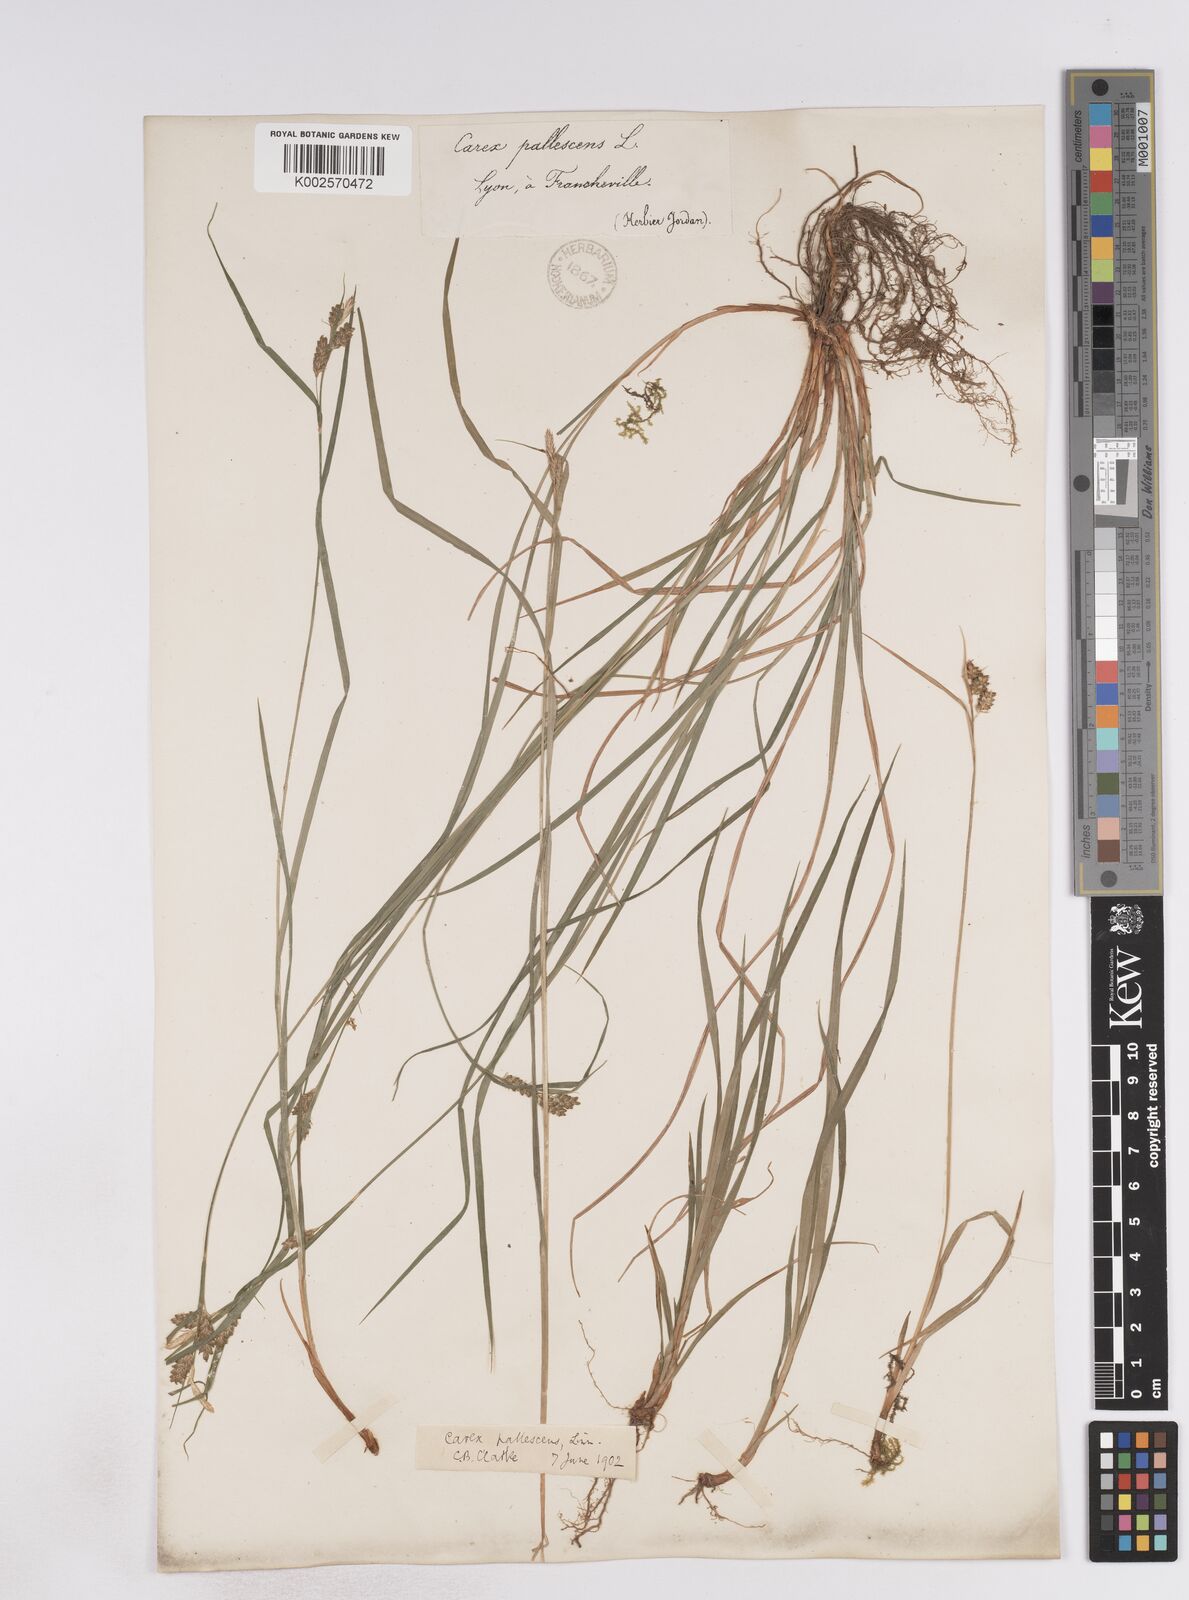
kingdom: Plantae
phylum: Tracheophyta
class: Liliopsida
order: Poales
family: Cyperaceae
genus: Carex
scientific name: Carex pallescens
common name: Pale sedge
